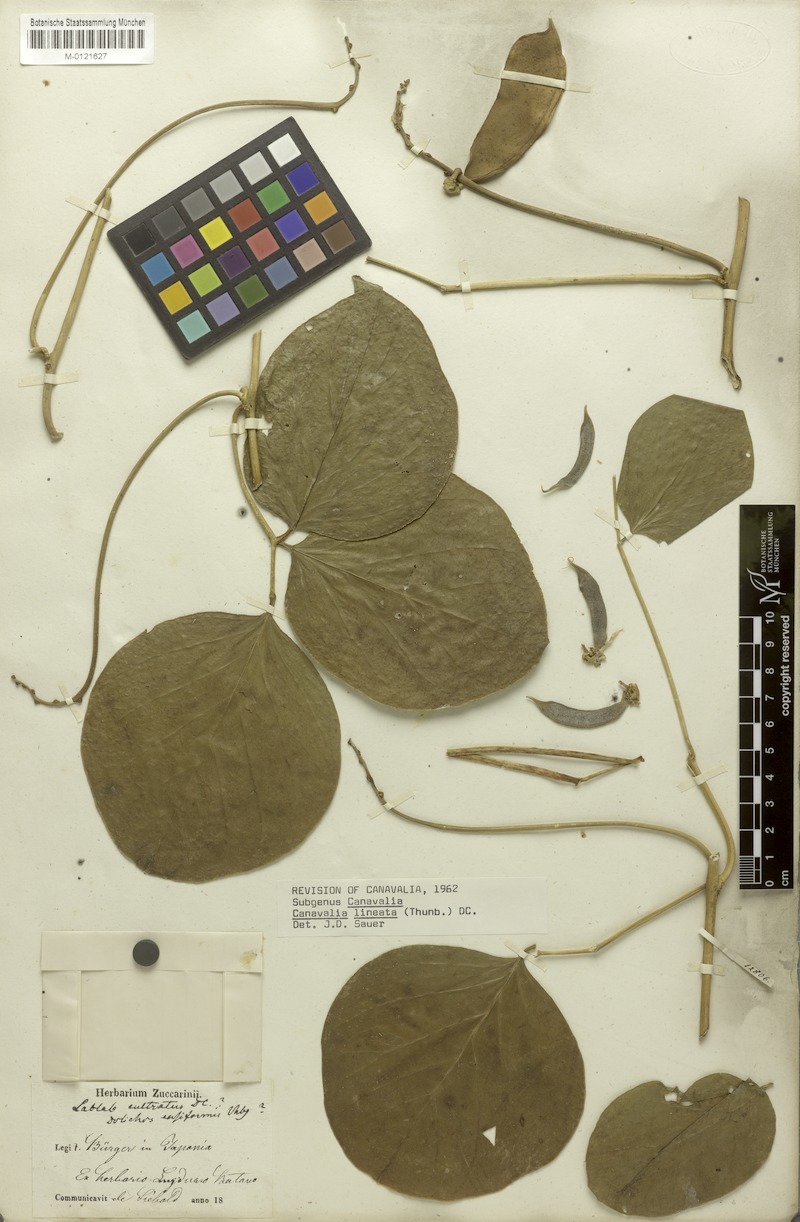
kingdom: Plantae
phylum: Tracheophyta
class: Magnoliopsida
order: Fabales
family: Fabaceae
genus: Canavalia
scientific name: Canavalia lineata
